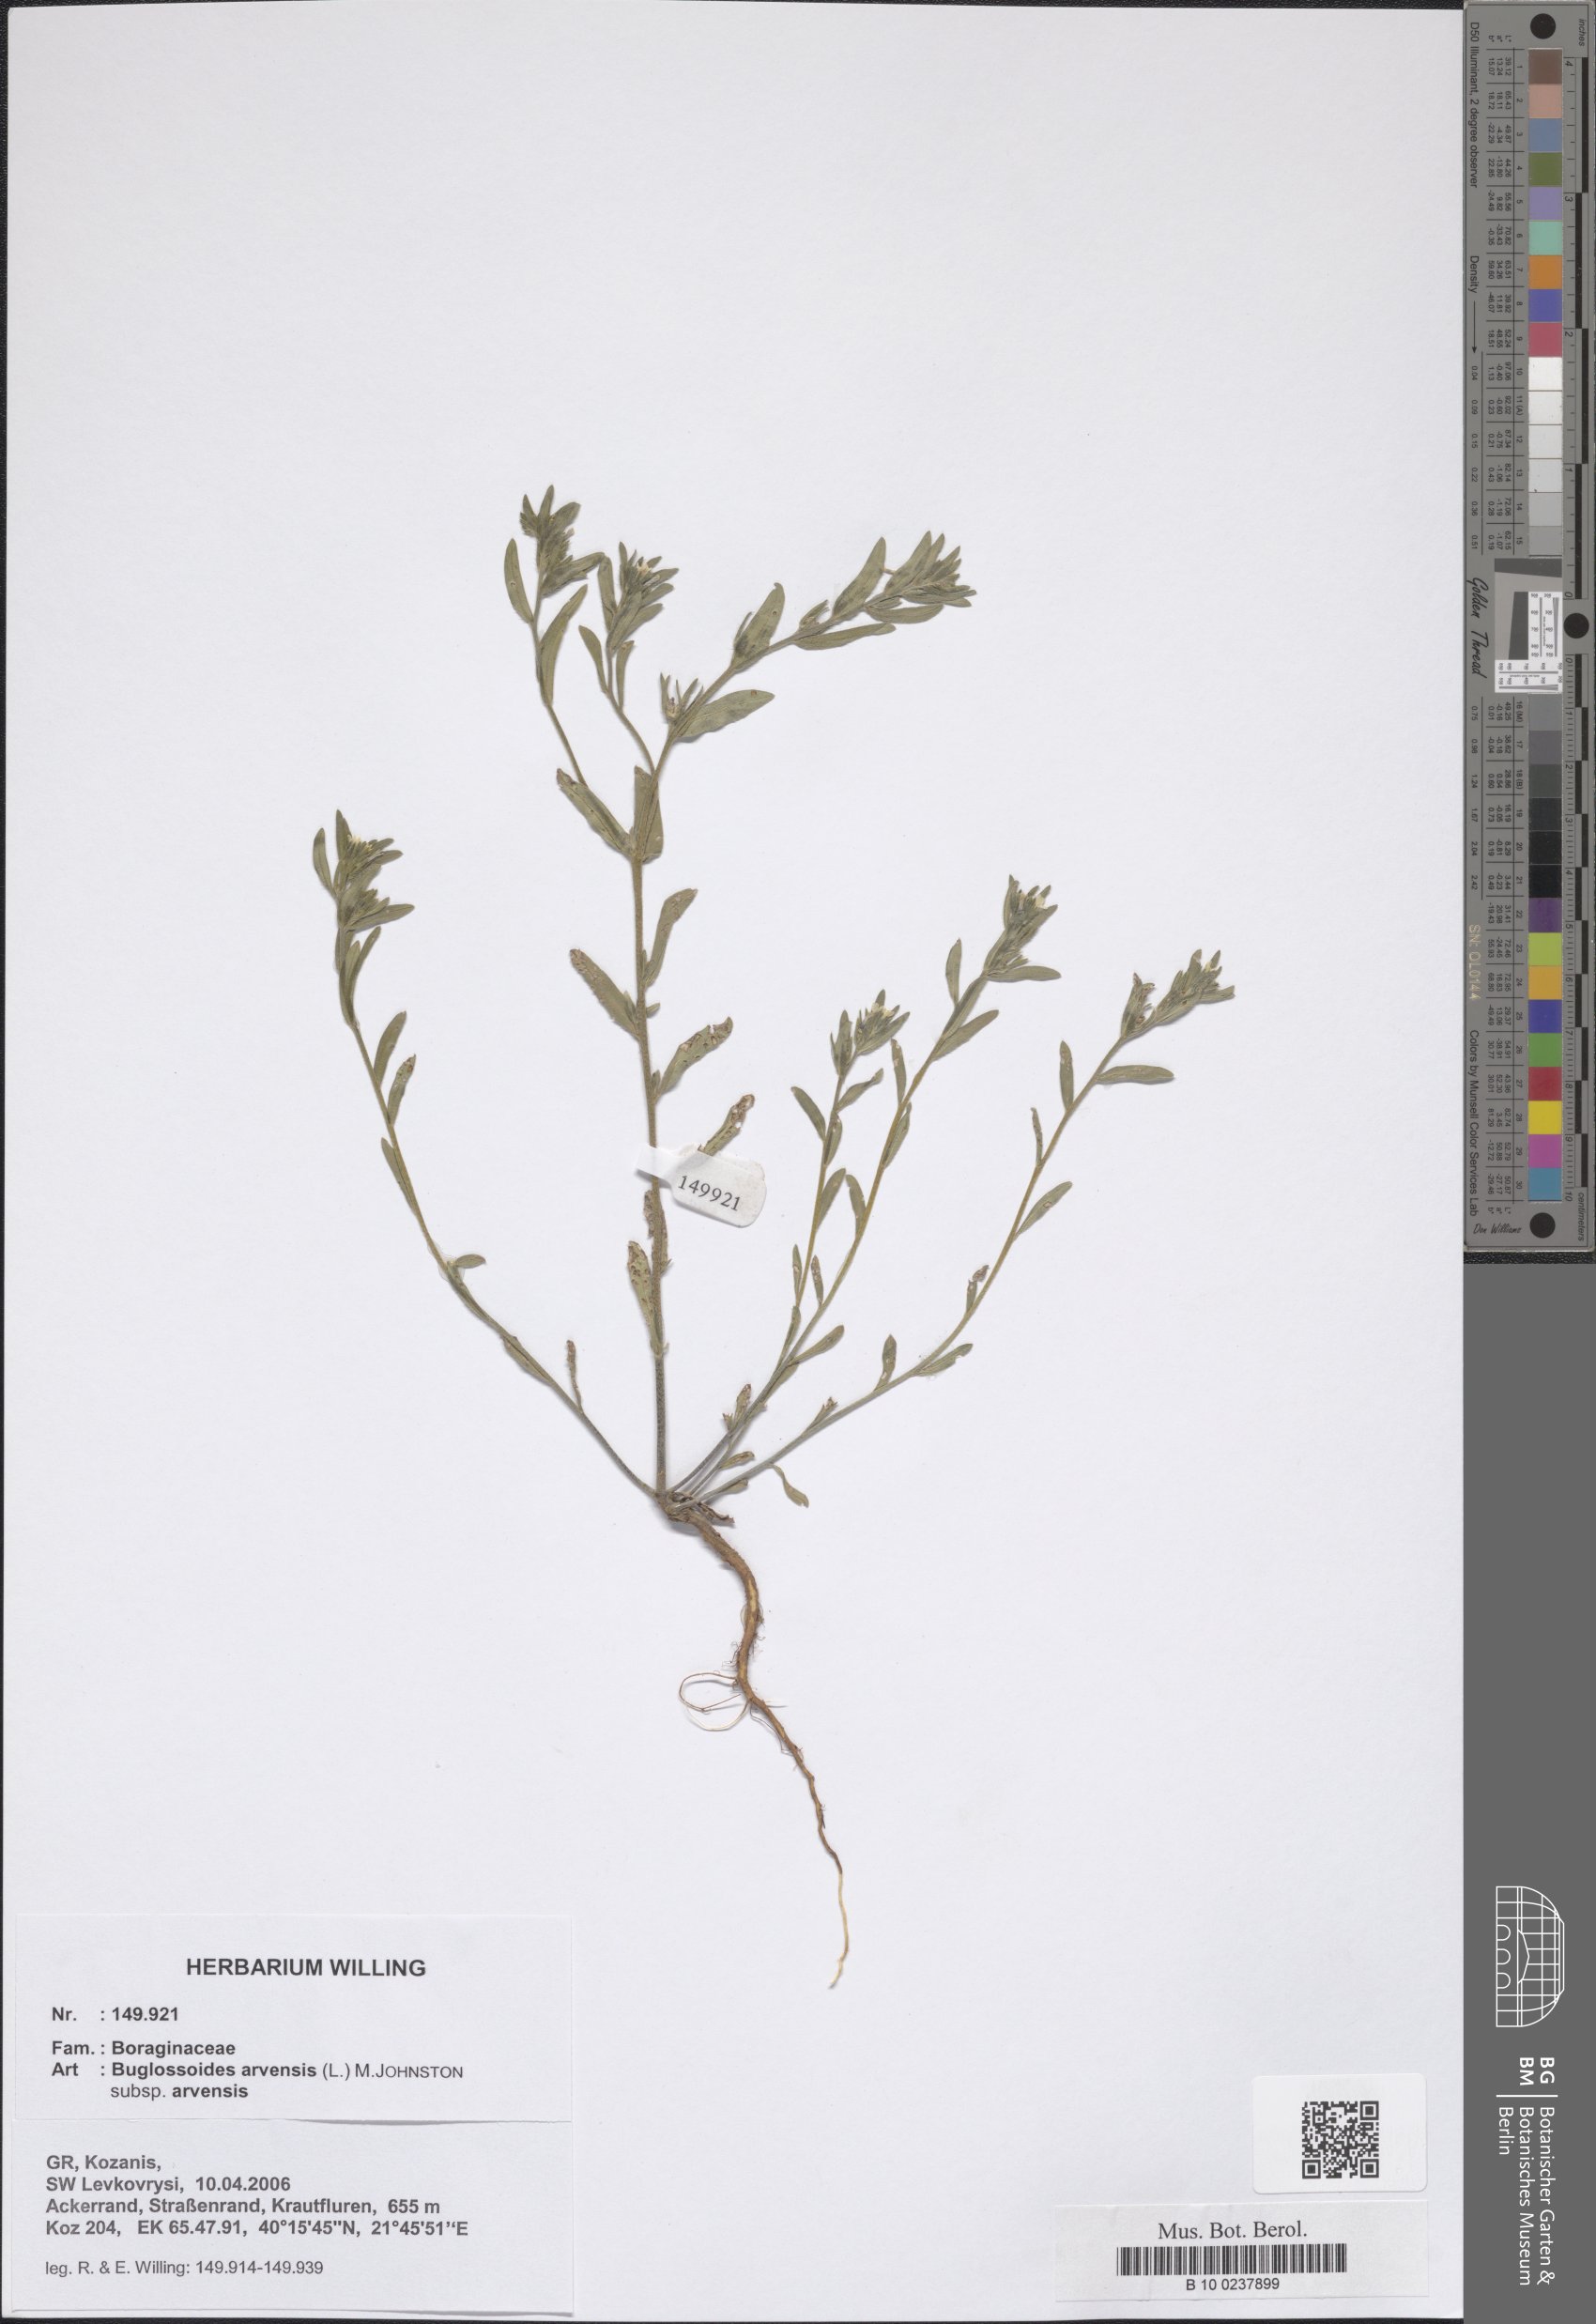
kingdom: Plantae
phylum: Tracheophyta
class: Magnoliopsida
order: Boraginales
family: Boraginaceae
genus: Buglossoides
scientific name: Buglossoides arvensis
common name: Corn gromwell
